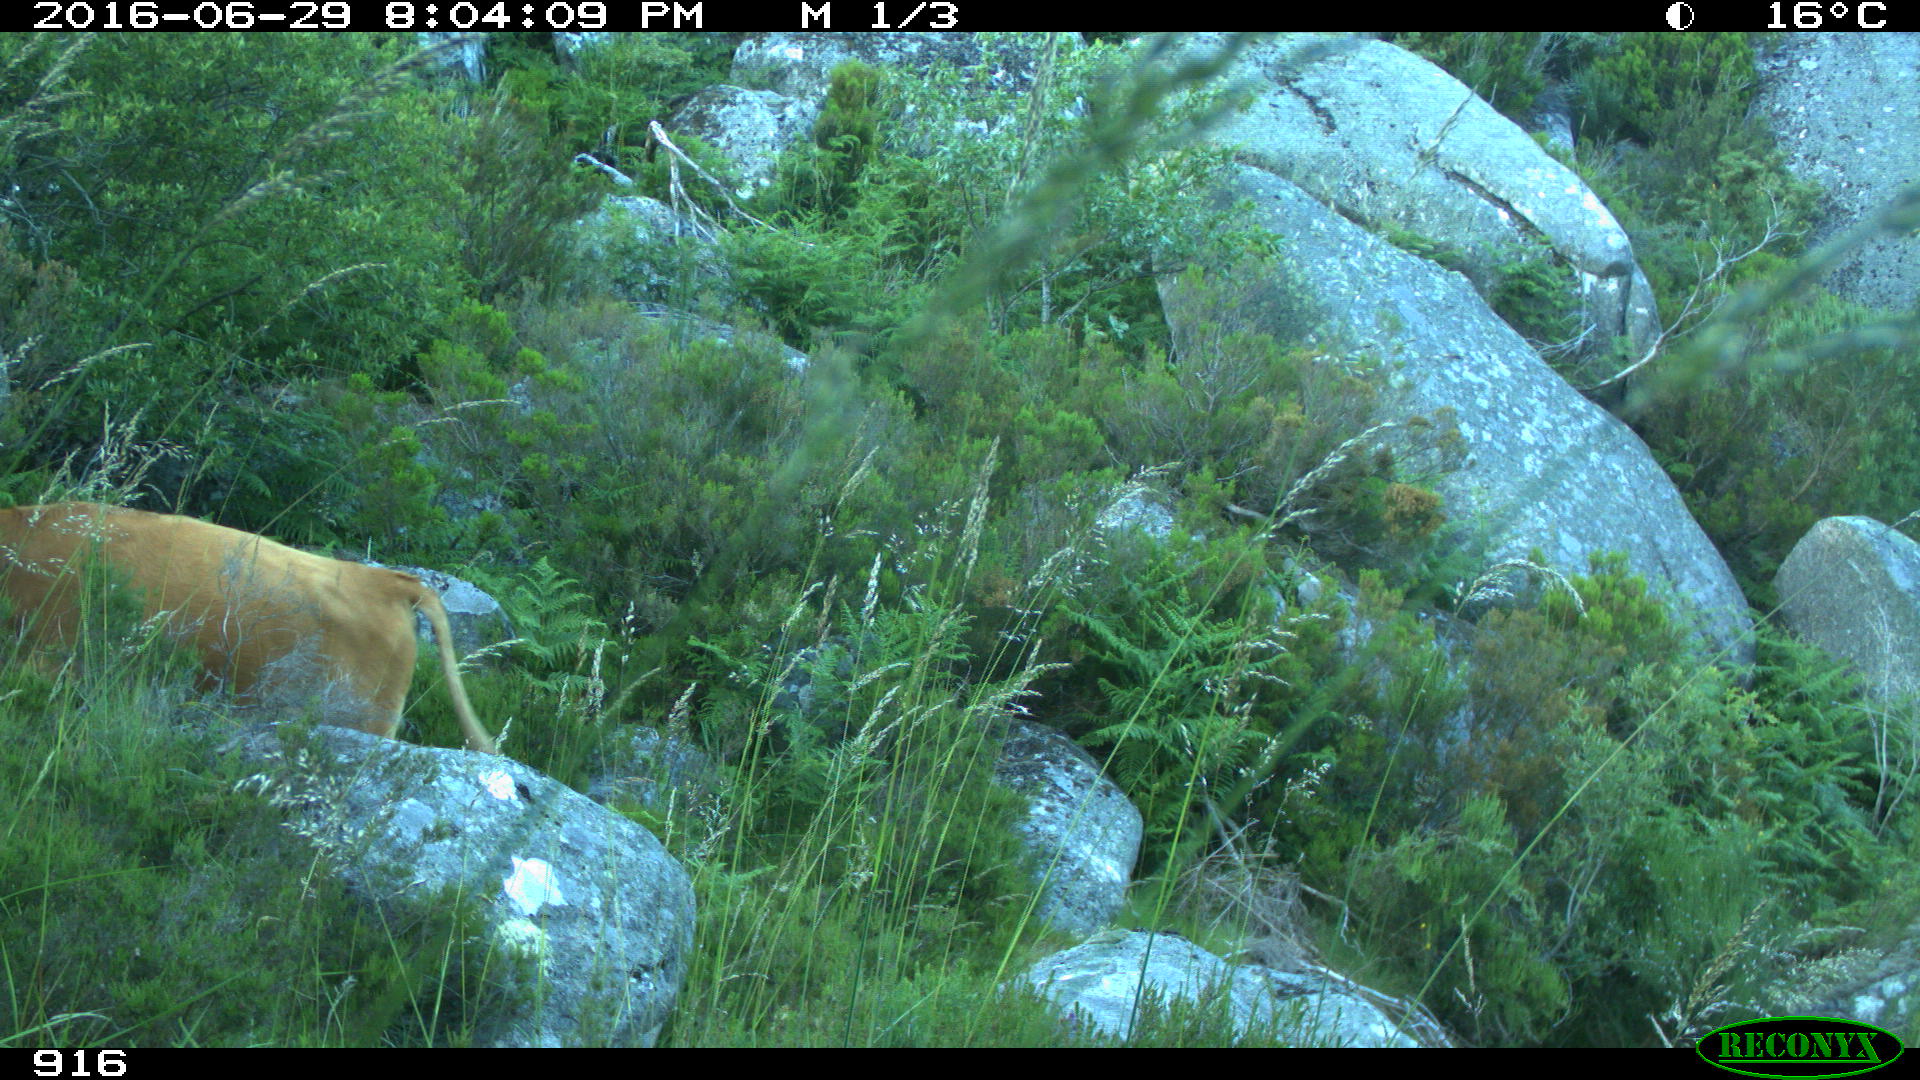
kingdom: Animalia
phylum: Chordata
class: Mammalia
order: Artiodactyla
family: Bovidae
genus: Bos
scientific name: Bos taurus
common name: Domesticated cattle
